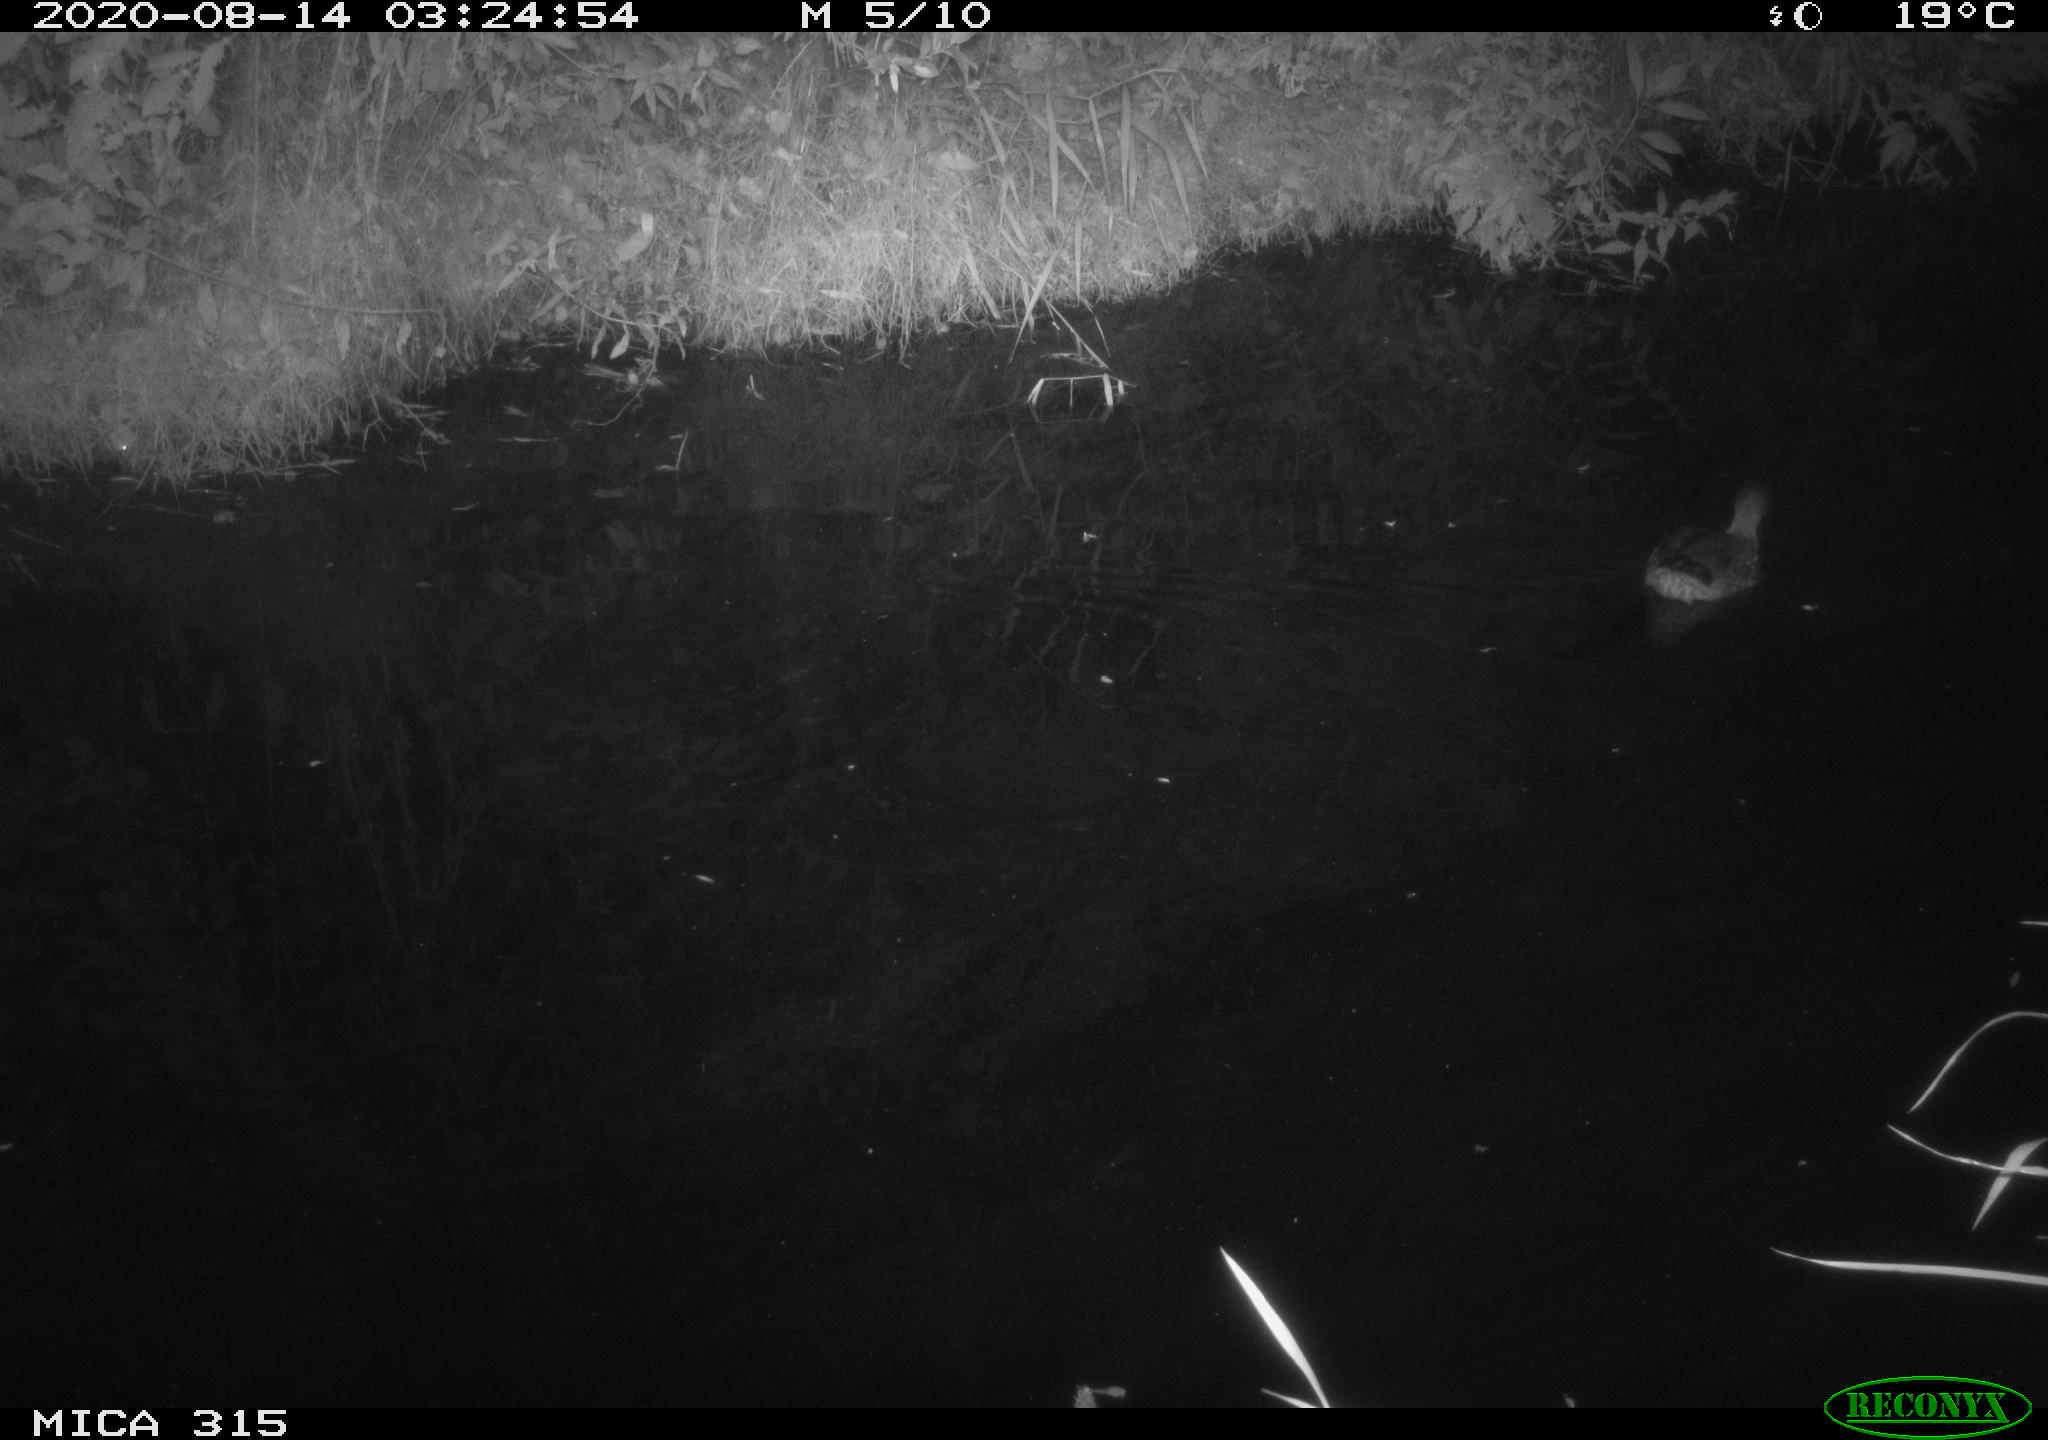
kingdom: Animalia
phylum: Chordata
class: Aves
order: Anseriformes
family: Anatidae
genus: Anas
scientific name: Anas platyrhynchos
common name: Mallard
